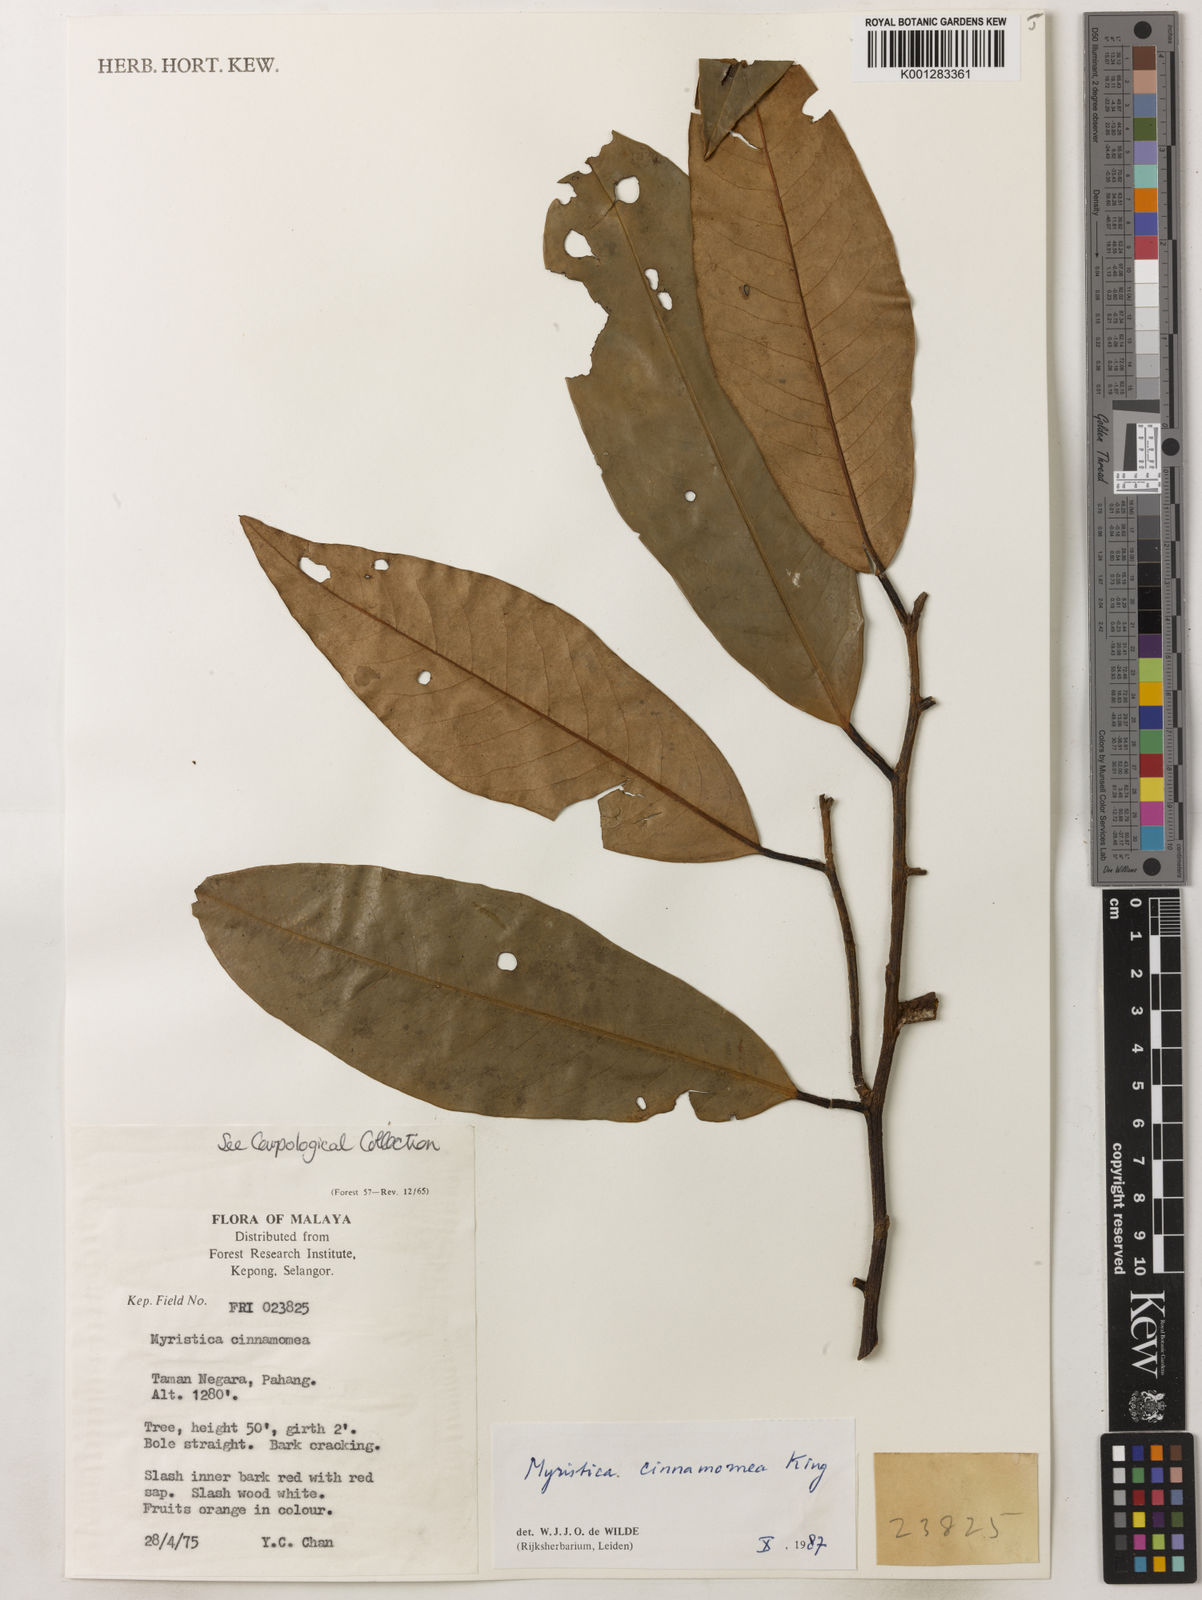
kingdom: Plantae
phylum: Tracheophyta
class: Magnoliopsida
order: Magnoliales
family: Myristicaceae
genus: Myristica
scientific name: Myristica cinnamomea
